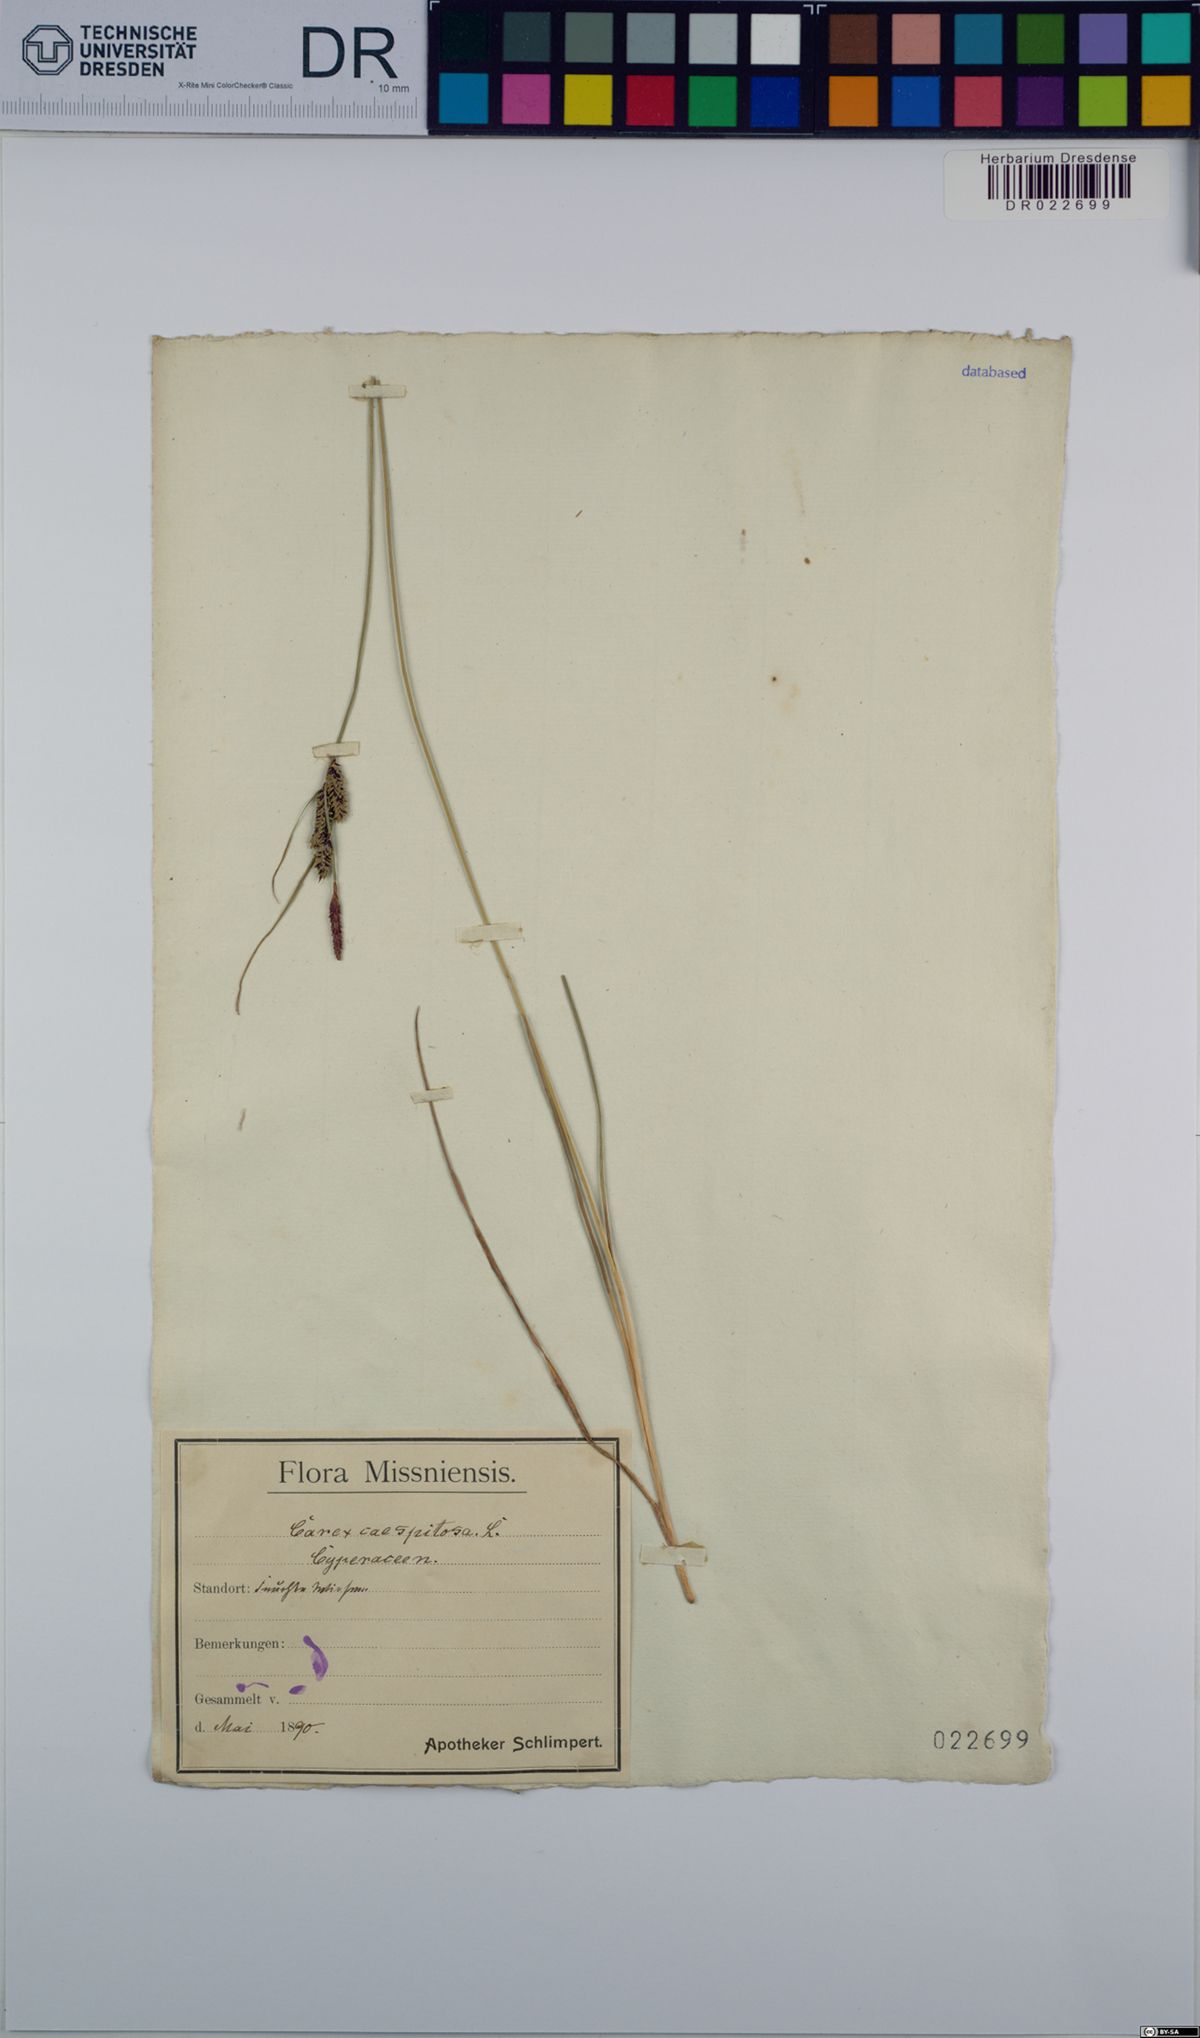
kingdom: Plantae
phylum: Tracheophyta
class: Liliopsida
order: Poales
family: Cyperaceae
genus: Carex
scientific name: Carex cespitosa
